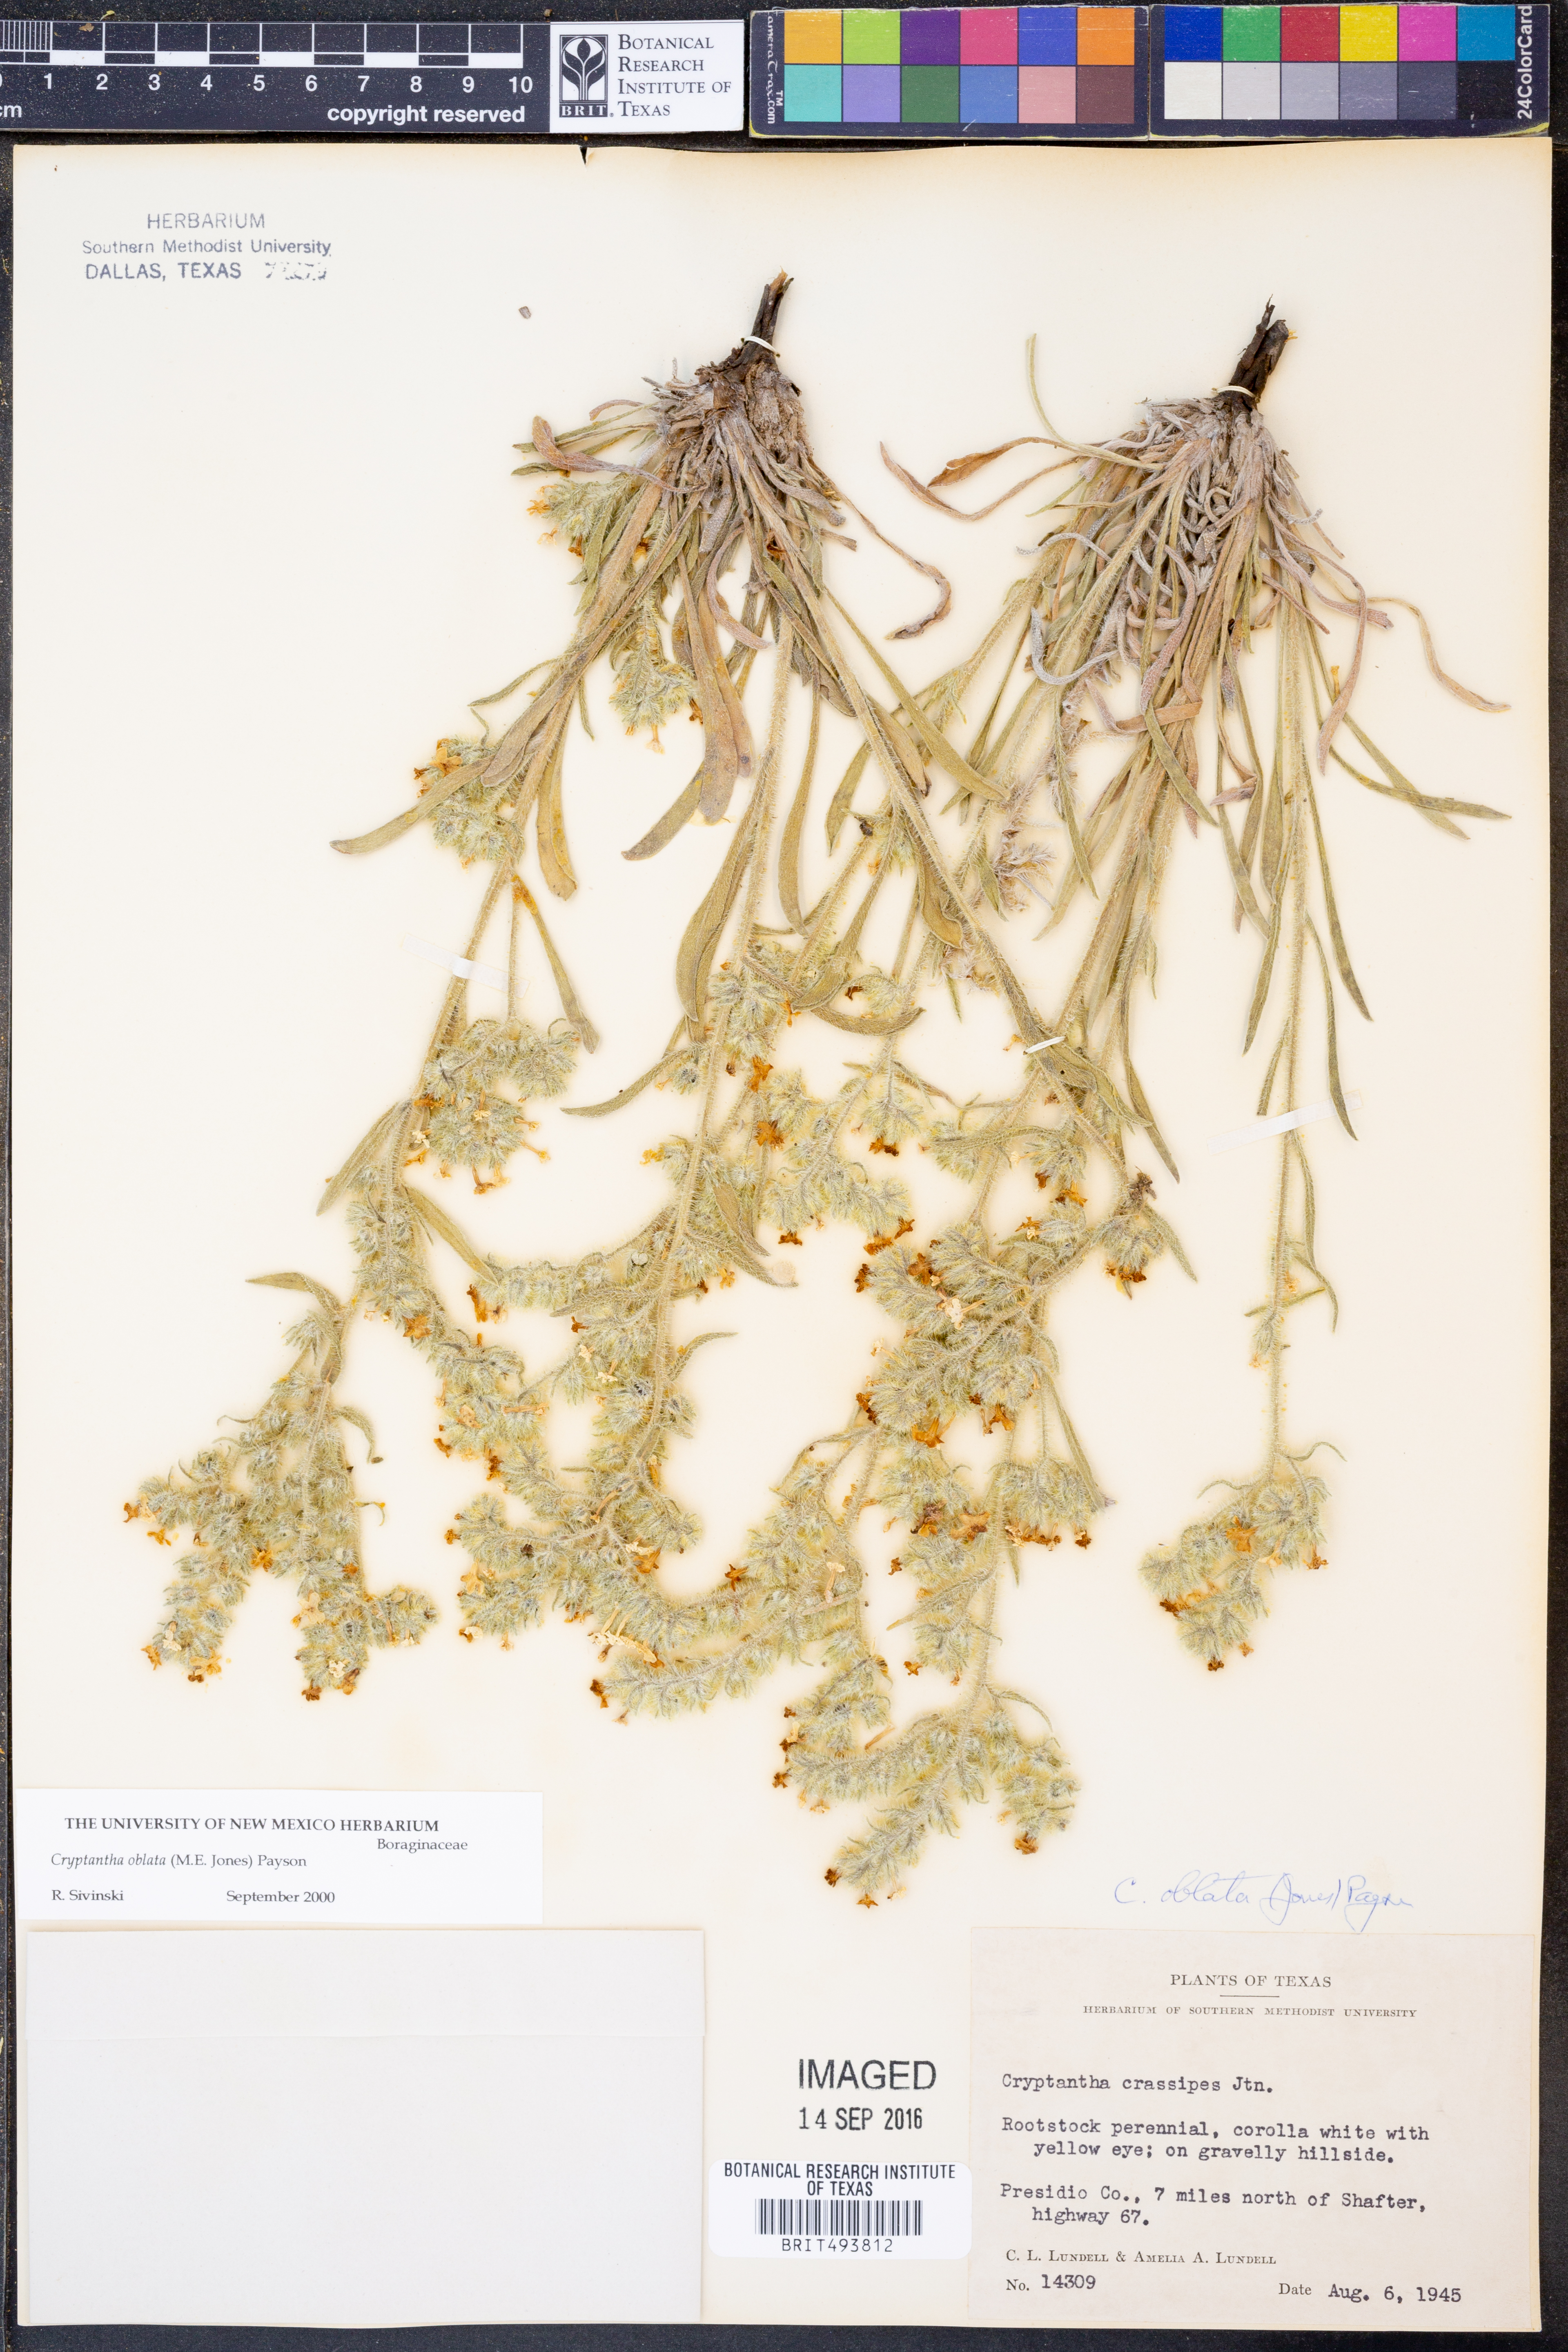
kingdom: Plantae
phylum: Tracheophyta
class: Magnoliopsida
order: Boraginales
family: Boraginaceae
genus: Oreocarya
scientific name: Oreocarya oblata
